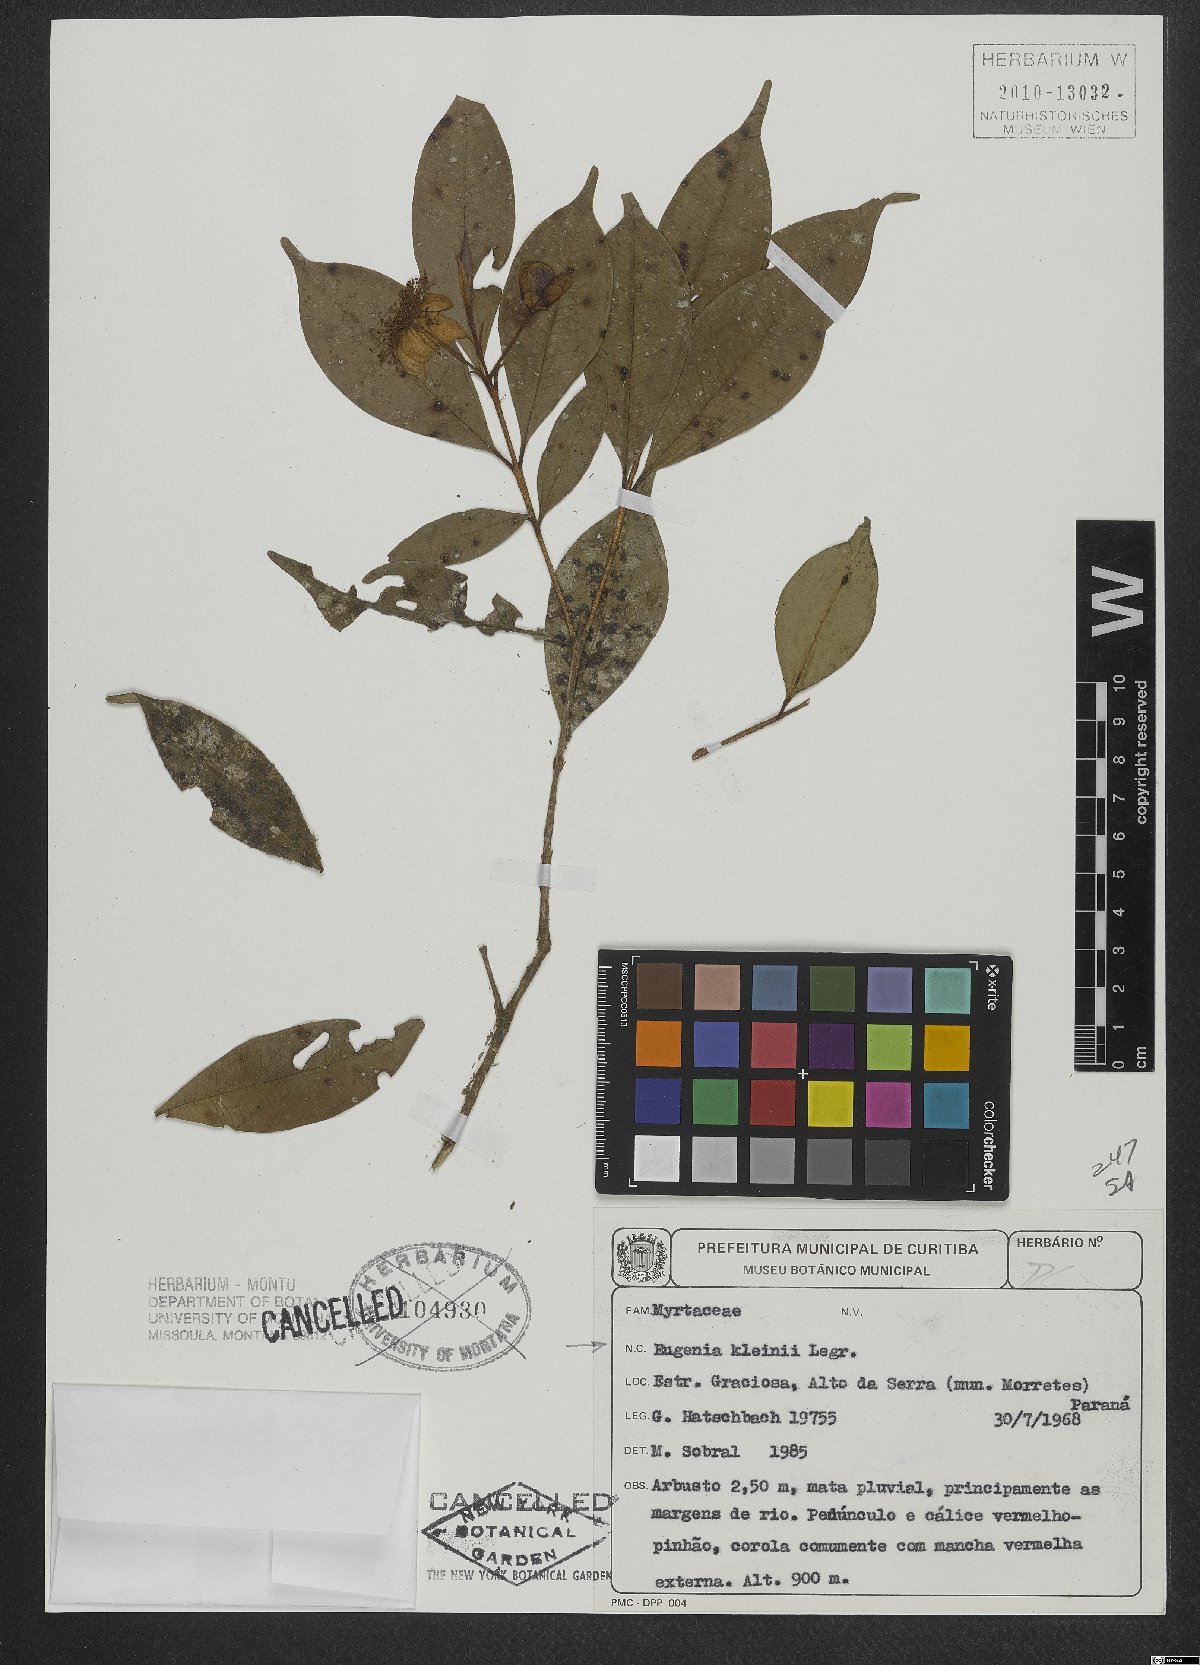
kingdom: Plantae
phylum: Tracheophyta
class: Magnoliopsida
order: Myrtales
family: Myrtaceae
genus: Eugenia
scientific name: Eugenia kleinii
